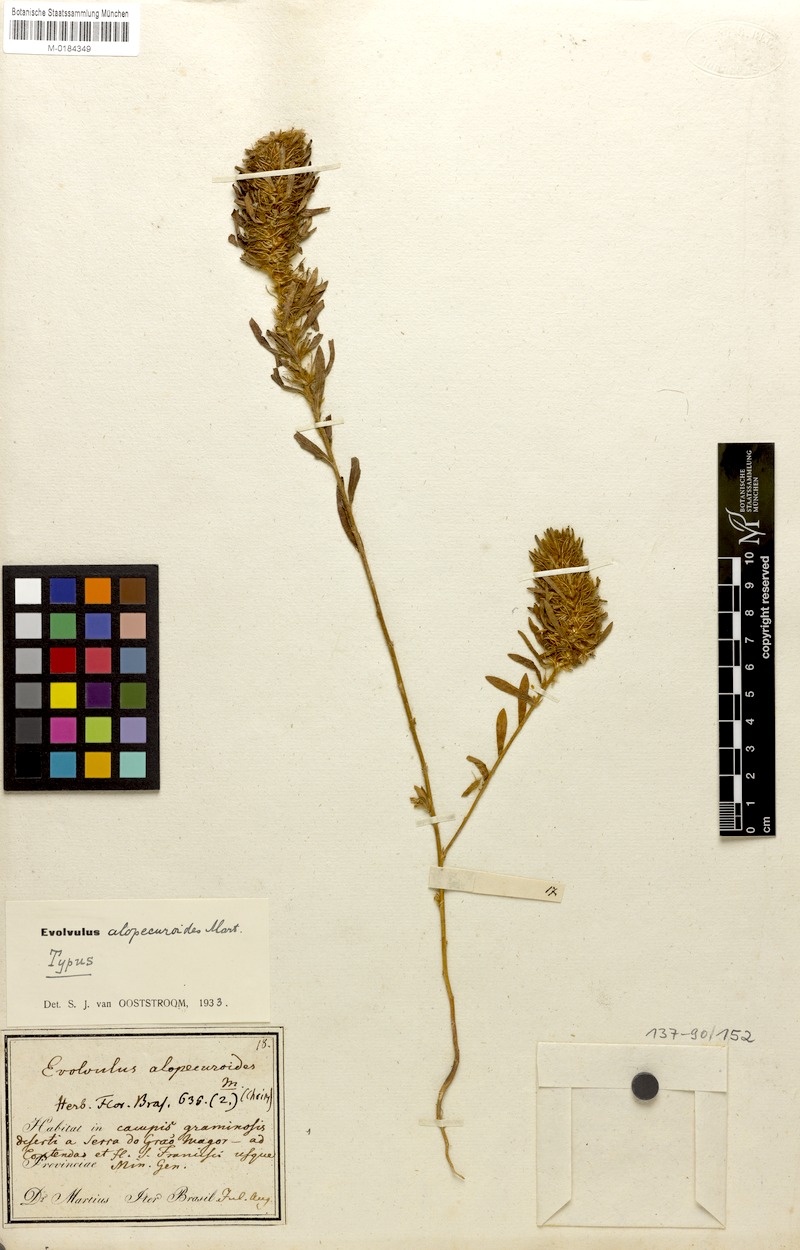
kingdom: Plantae
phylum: Tracheophyta
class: Magnoliopsida
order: Solanales
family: Convolvulaceae
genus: Evolvulus
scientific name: Evolvulus alopecuroides
